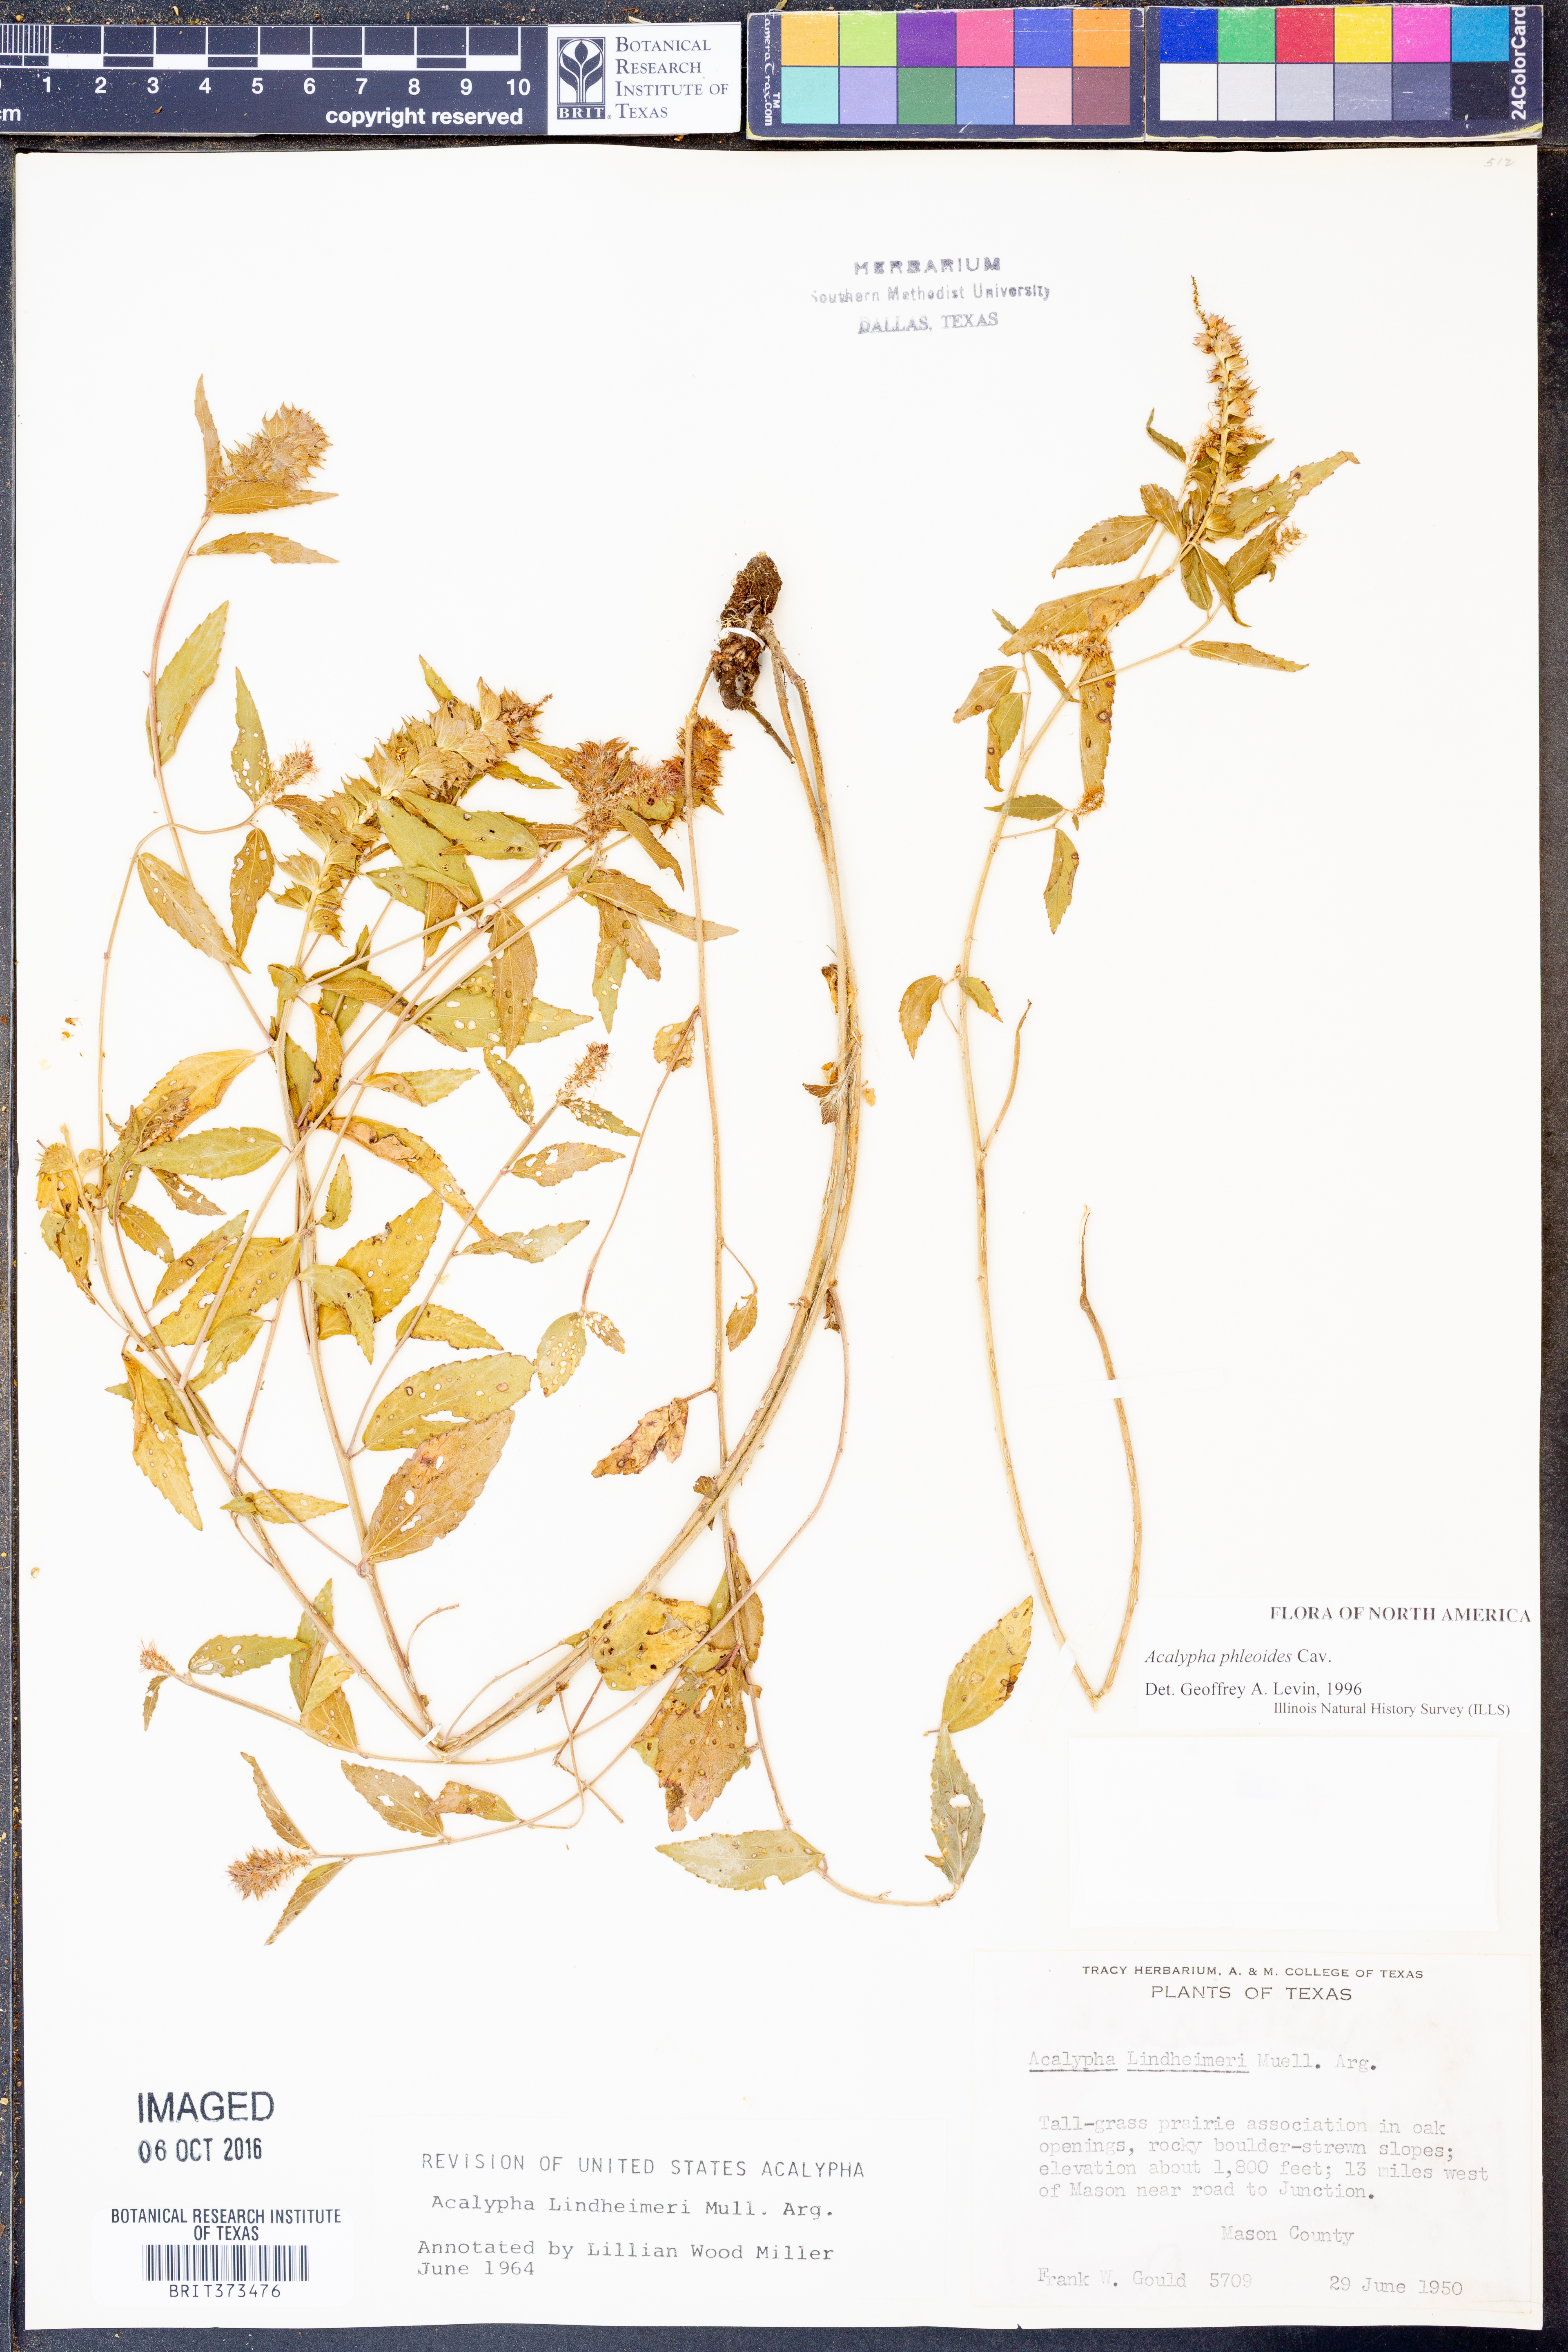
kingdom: Plantae
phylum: Tracheophyta
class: Magnoliopsida
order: Malpighiales
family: Euphorbiaceae
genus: Acalypha
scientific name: Acalypha phleoides
